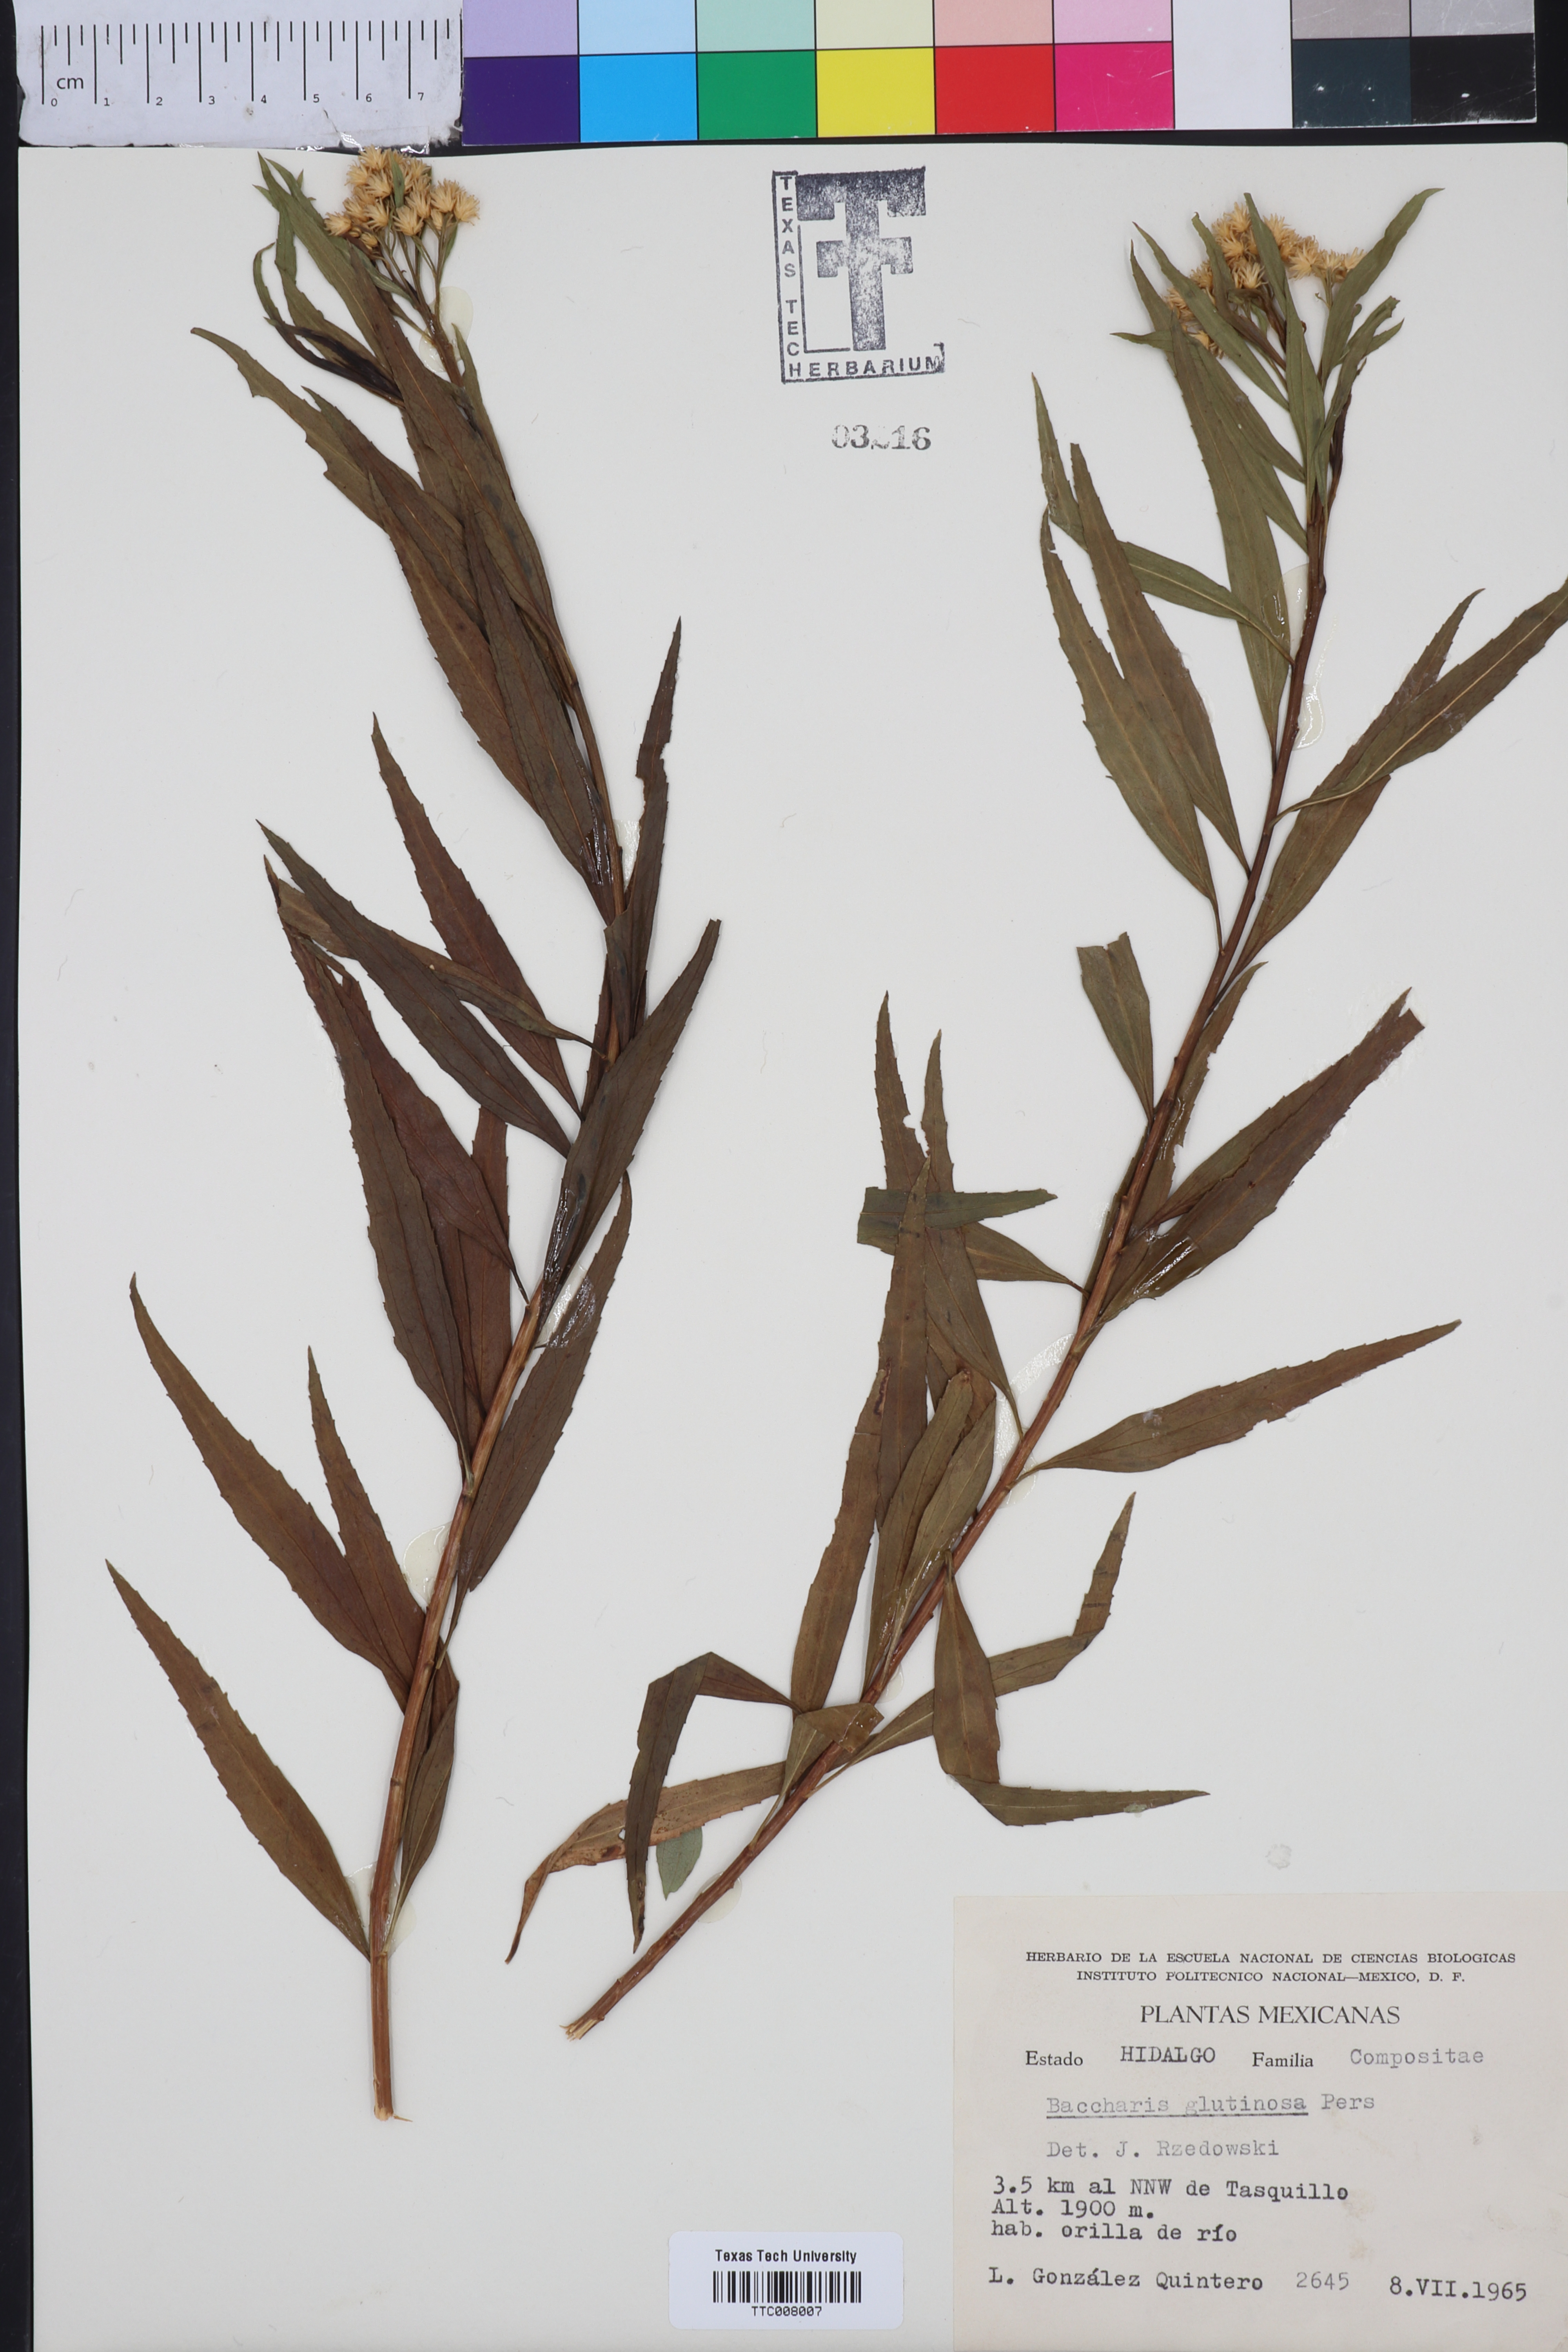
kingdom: Plantae
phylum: Tracheophyta
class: Magnoliopsida
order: Asterales
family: Asteraceae
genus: Baccharis
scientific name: Baccharis glutinosa
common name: Saltmarsh baccharis
